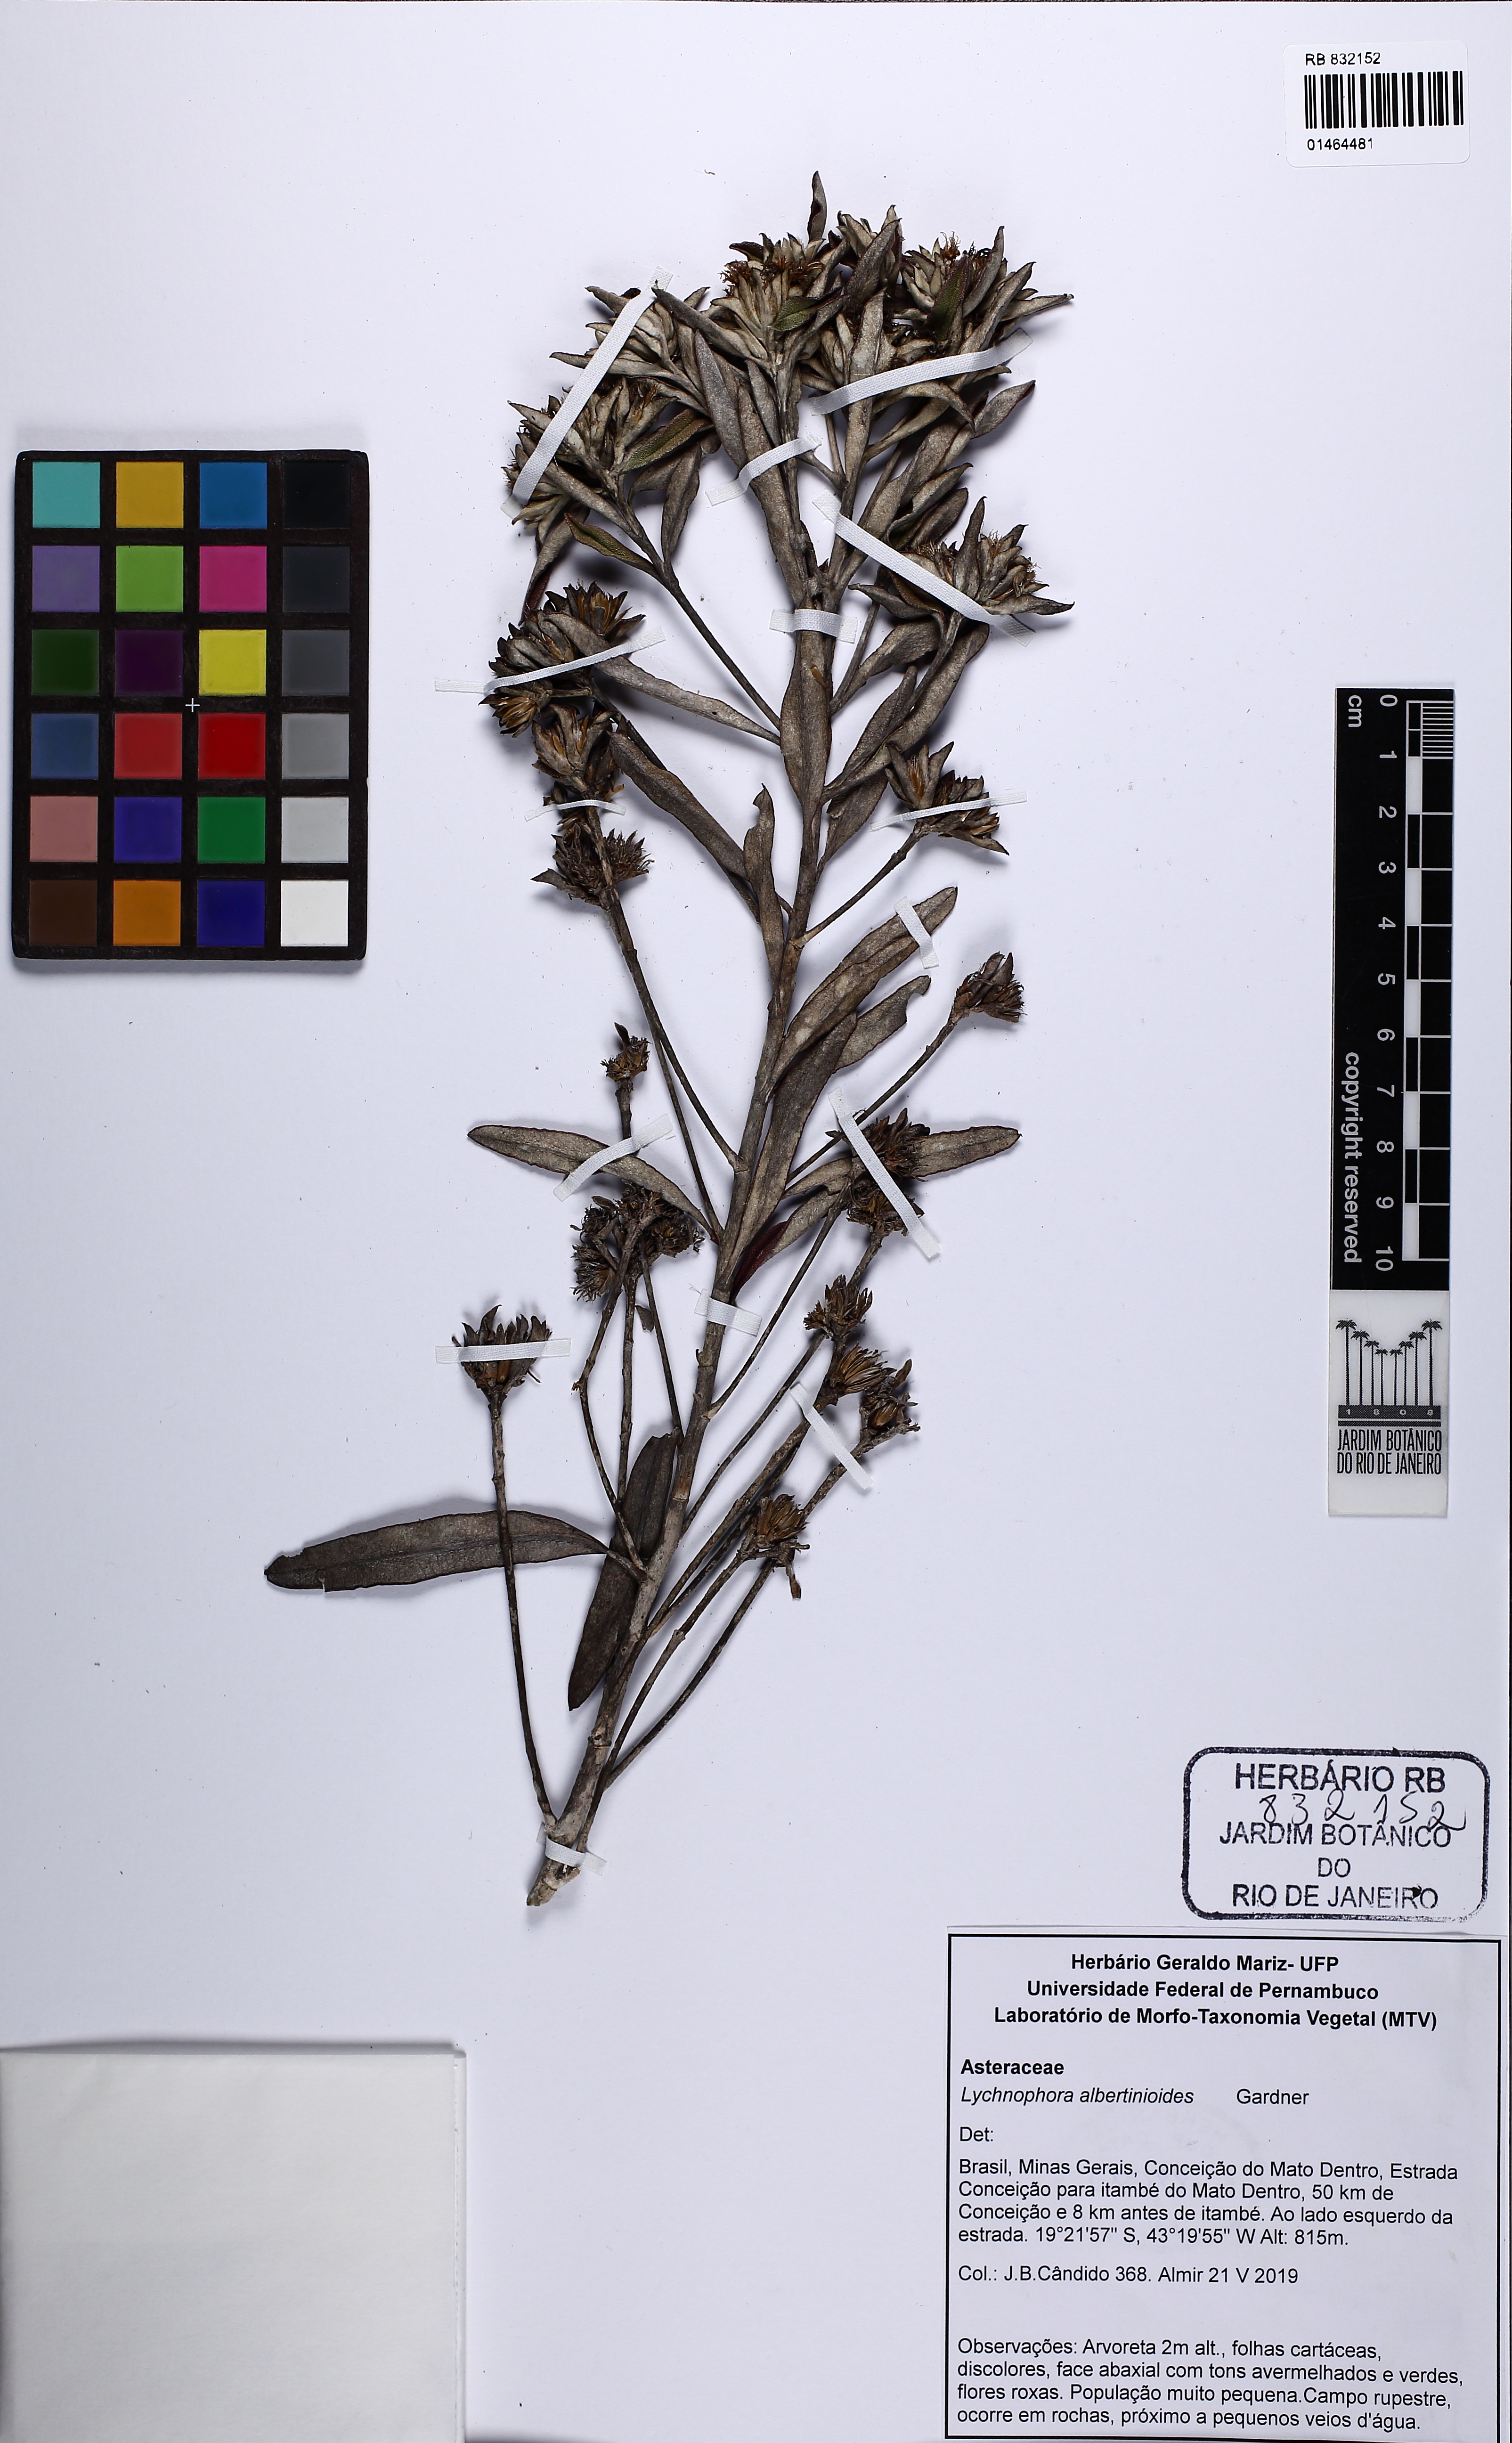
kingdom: Plantae
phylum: Tracheophyta
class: Magnoliopsida
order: Asterales
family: Asteraceae
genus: Lychnophora
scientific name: Lychnophora albertinioides
